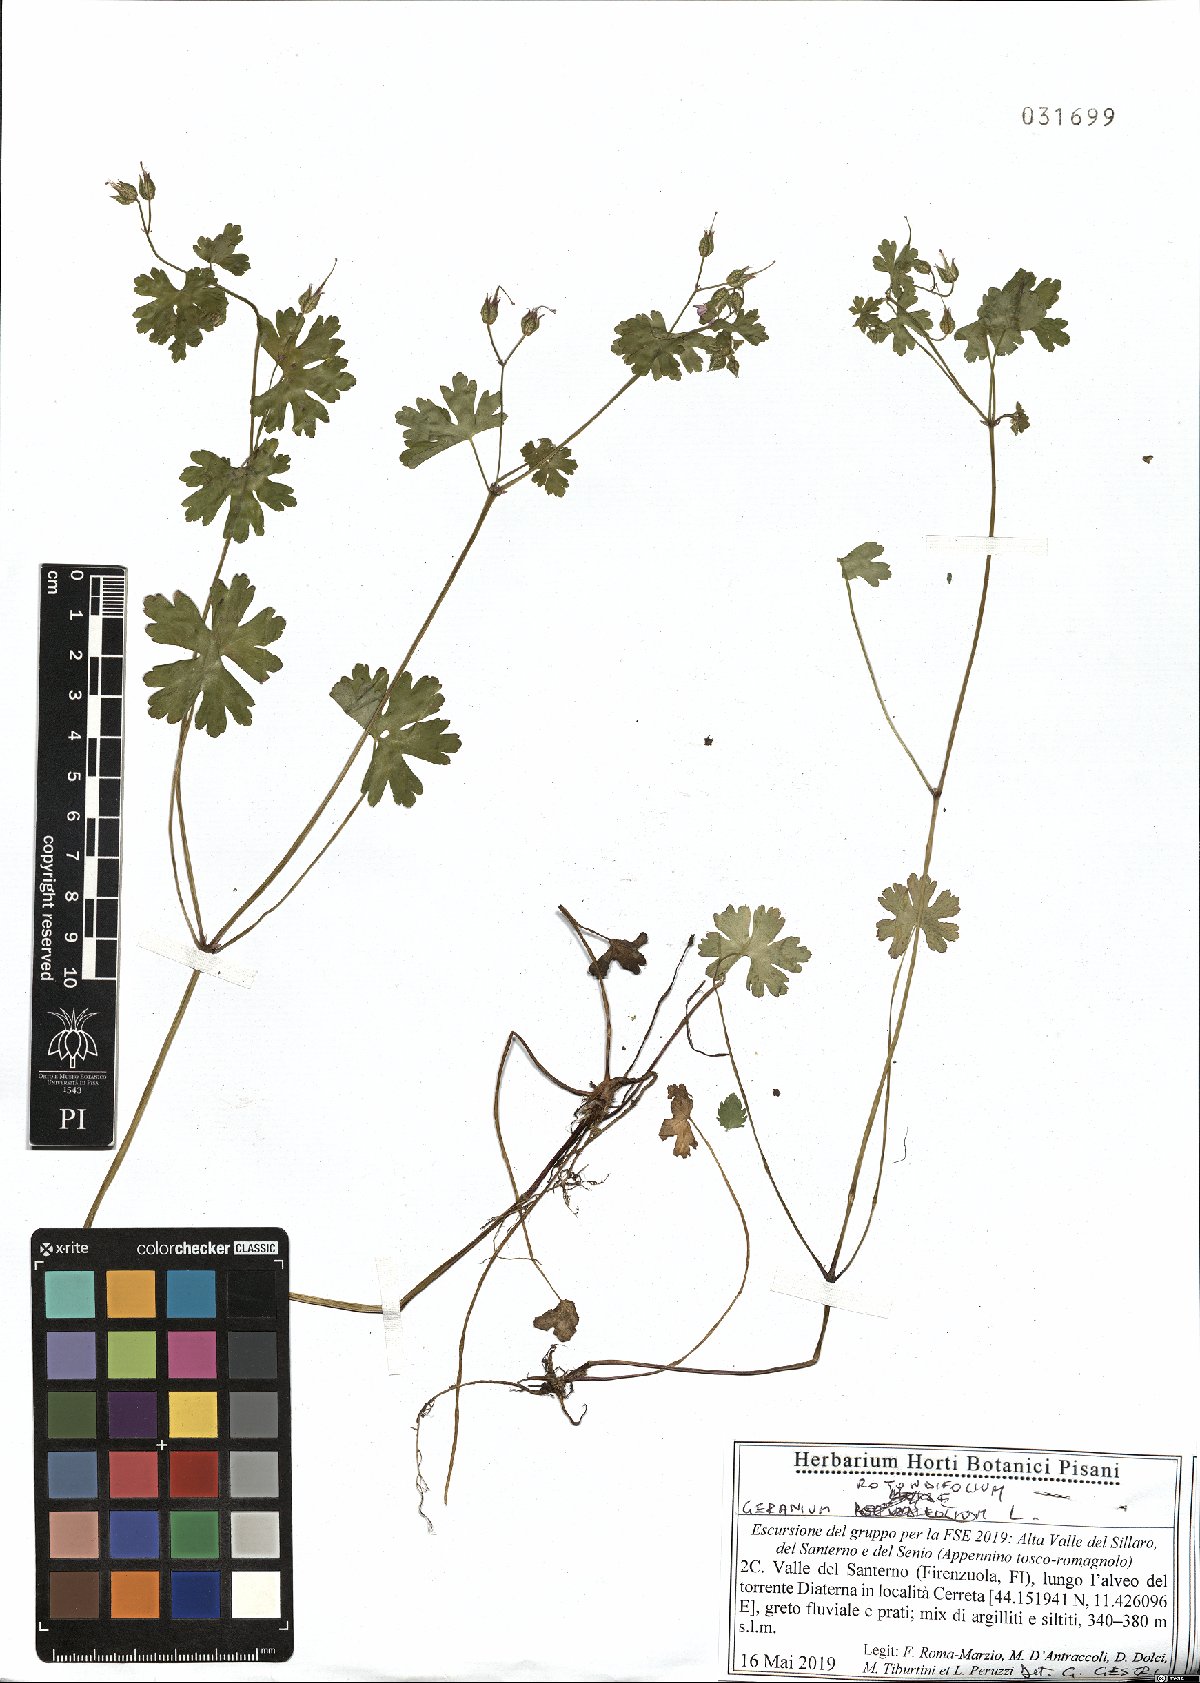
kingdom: Plantae
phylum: Tracheophyta
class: Magnoliopsida
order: Geraniales
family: Geraniaceae
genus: Geranium
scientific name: Geranium rotundifolium
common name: Round-leaved crane's-bill
